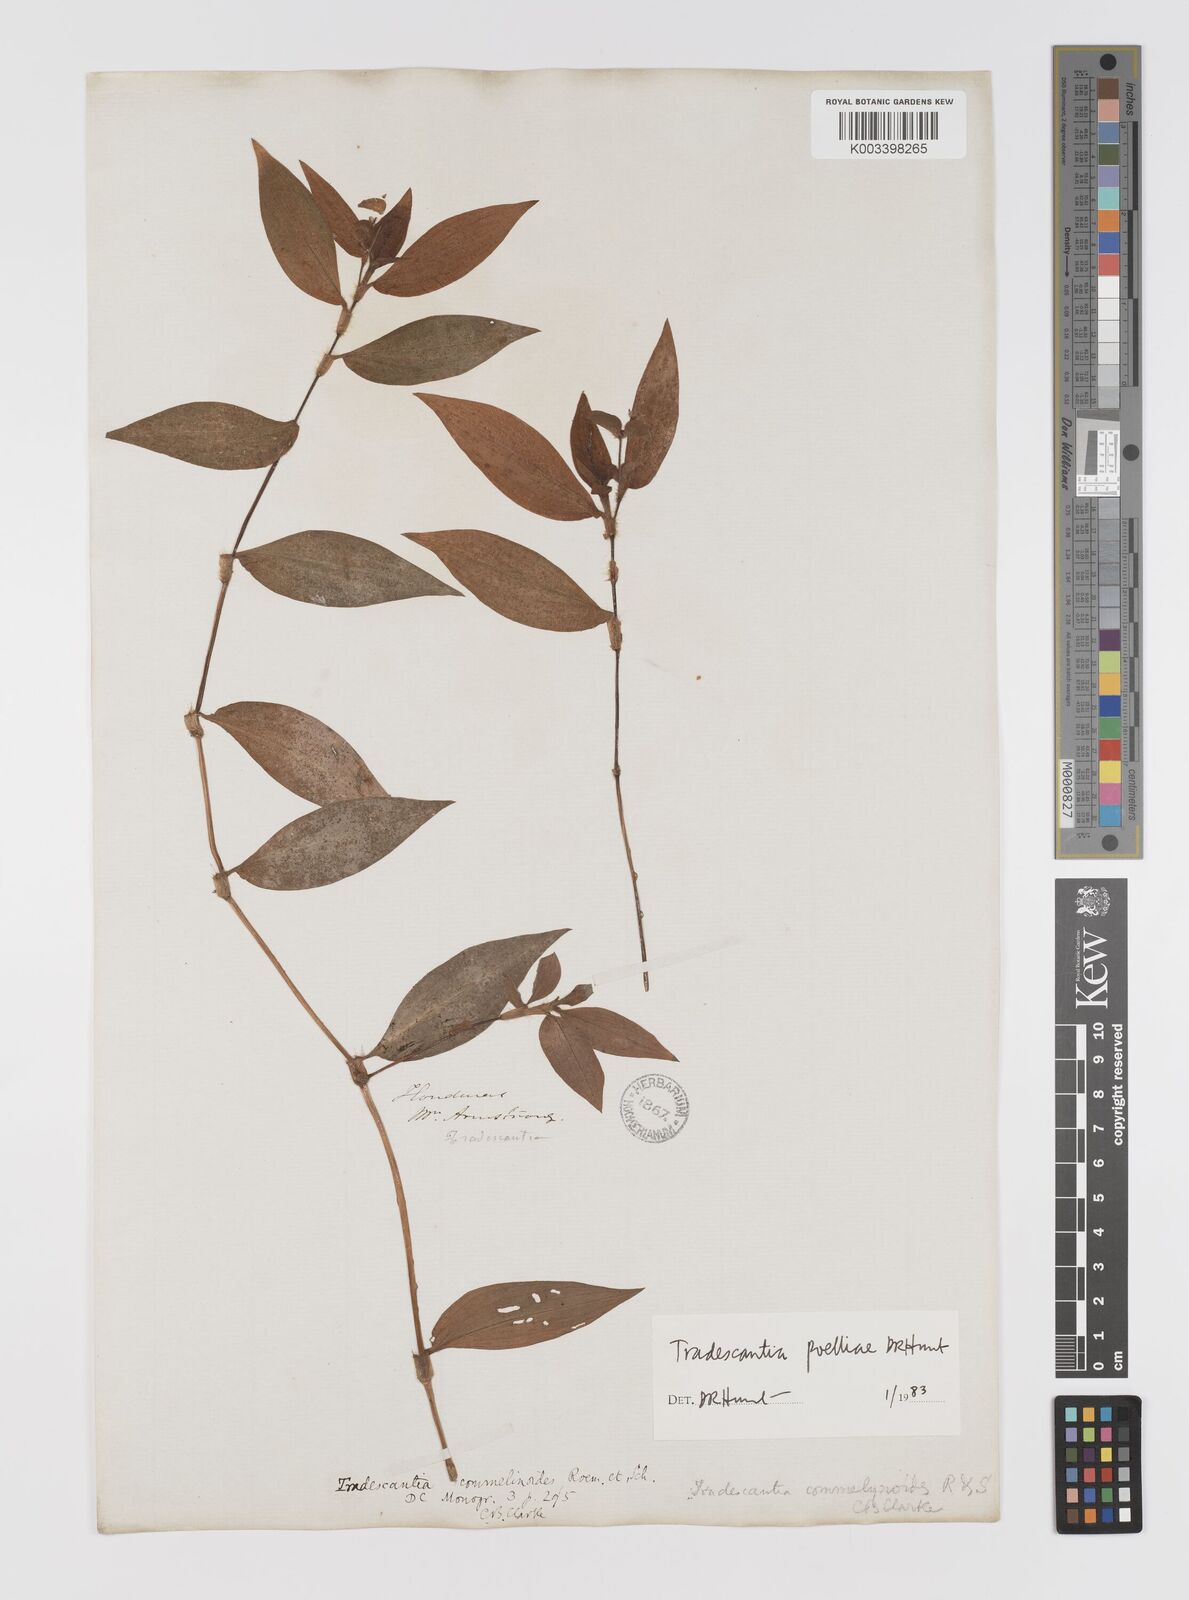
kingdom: Plantae
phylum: Tracheophyta
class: Liliopsida
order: Commelinales
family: Commelinaceae
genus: Tradescantia
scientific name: Tradescantia poelliae
